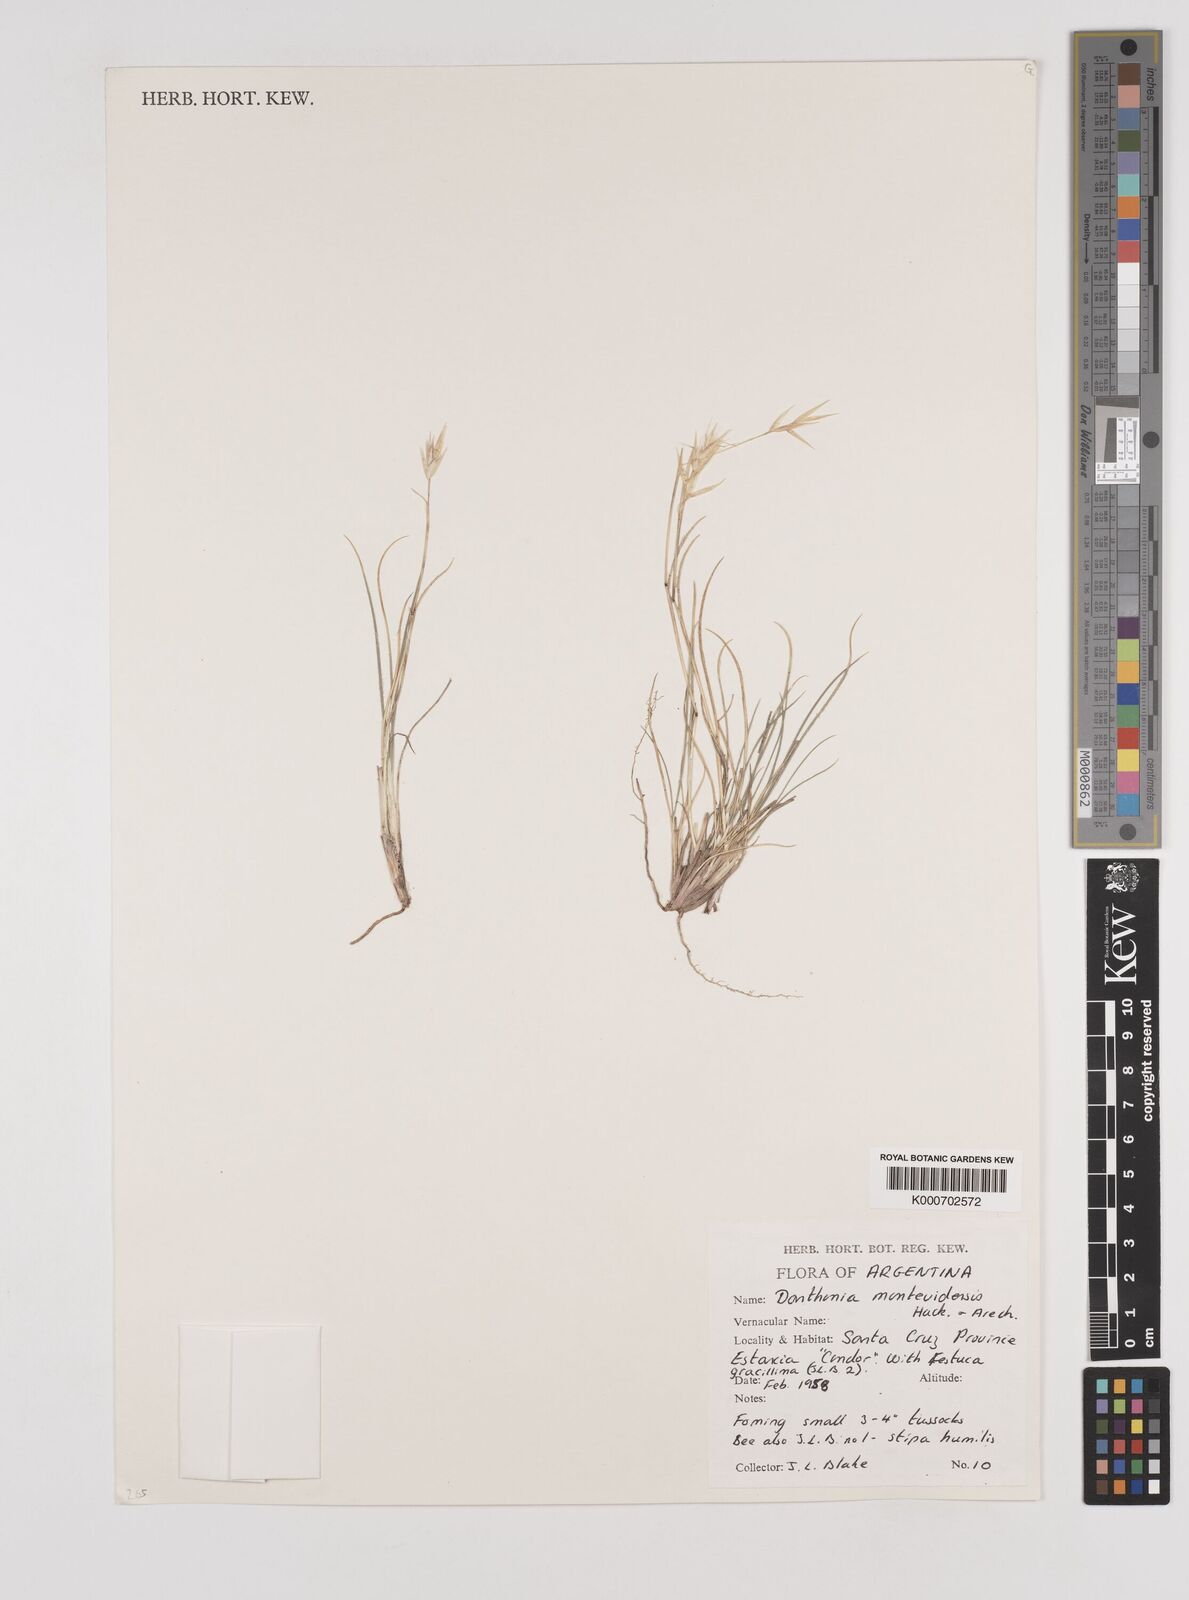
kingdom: Plantae
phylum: Tracheophyta
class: Liliopsida
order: Poales
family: Poaceae
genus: Danthonia
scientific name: Danthonia montevidensis
